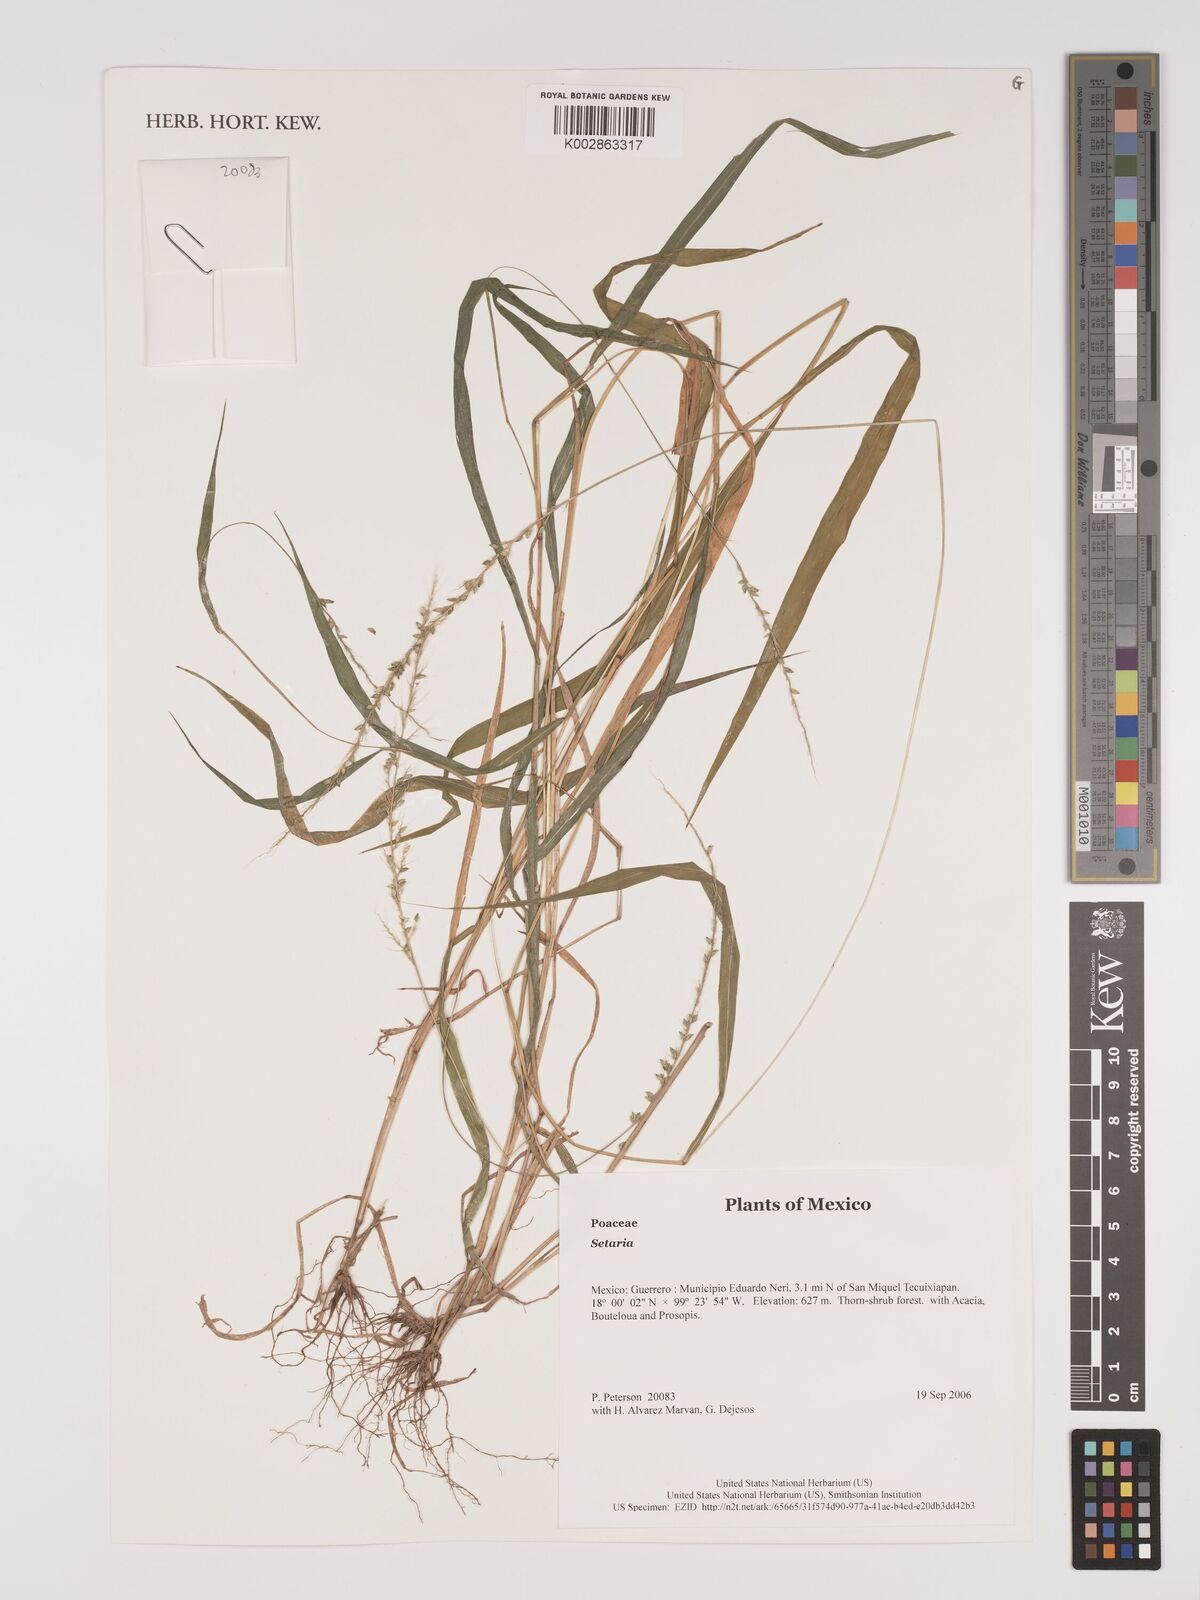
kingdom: Plantae
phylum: Tracheophyta
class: Liliopsida
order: Poales
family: Poaceae
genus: Setaria
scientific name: Setaria
